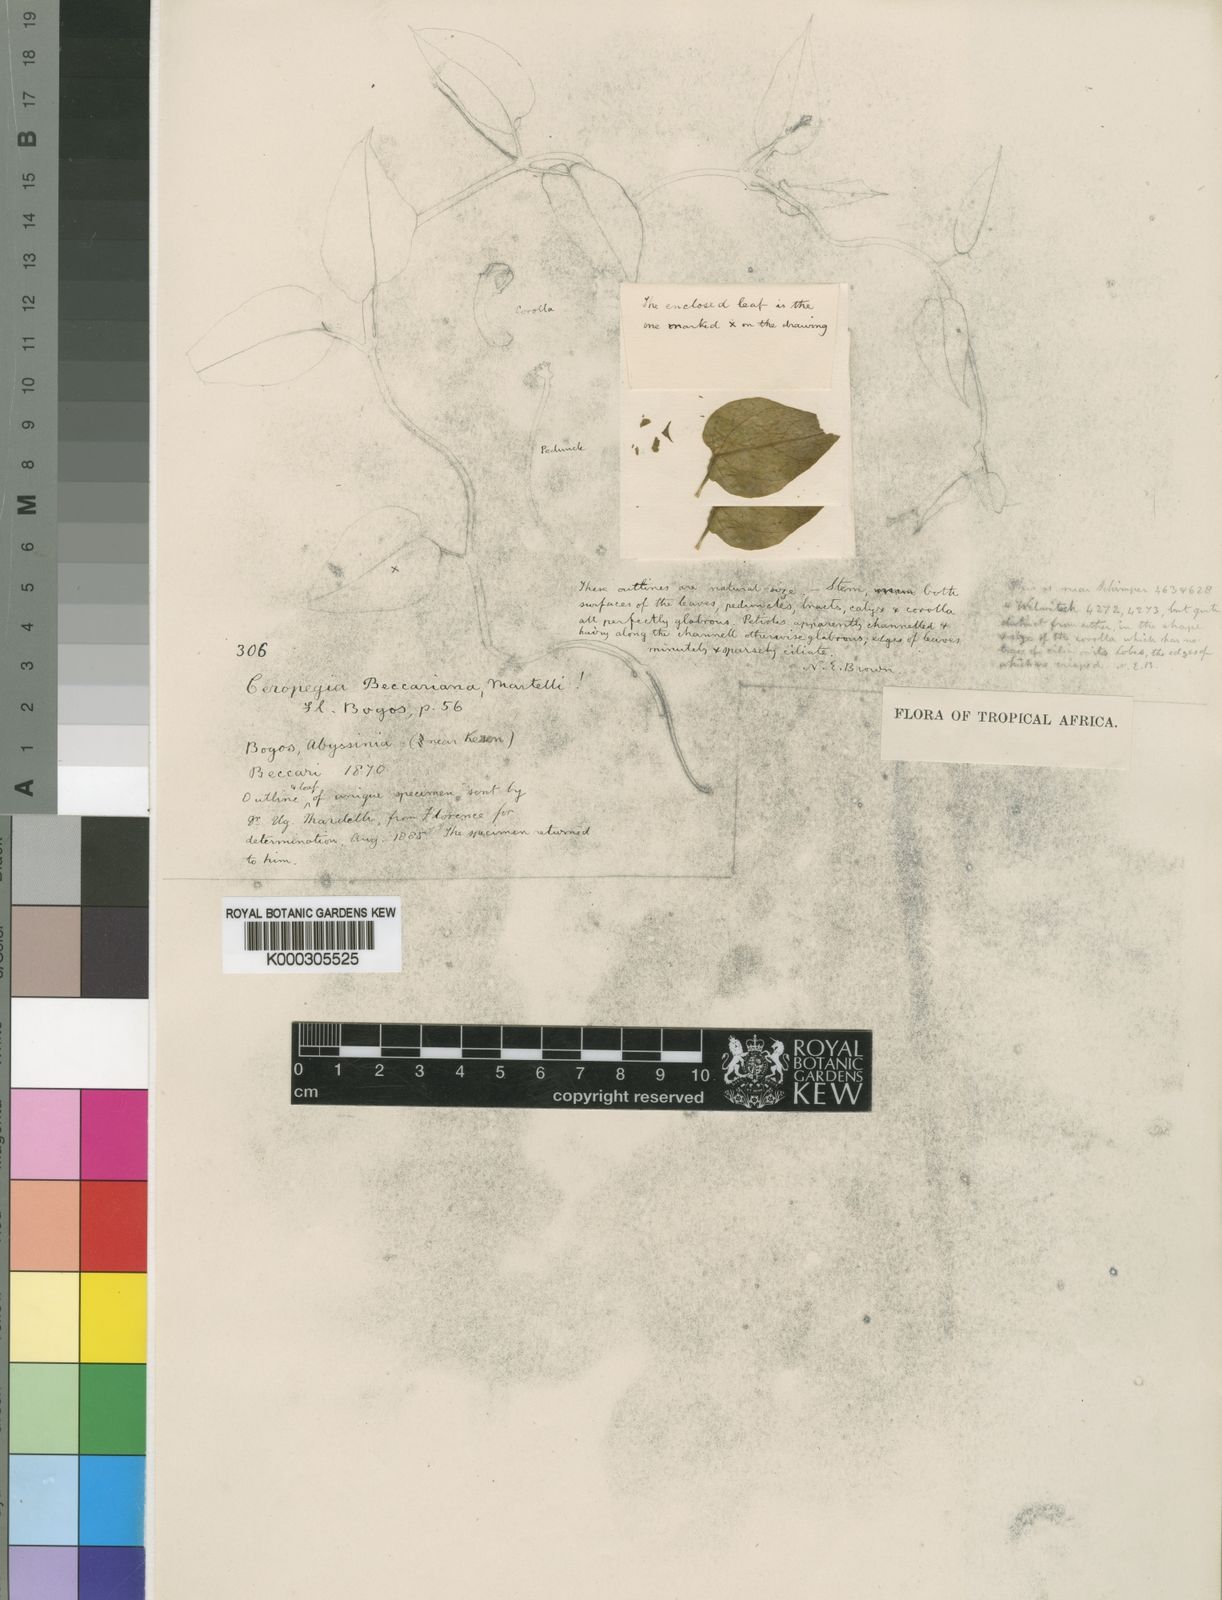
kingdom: Plantae
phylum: Tracheophyta
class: Magnoliopsida
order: Gentianales
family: Apocynaceae
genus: Ceropegia
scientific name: Ceropegia aristolochioides
